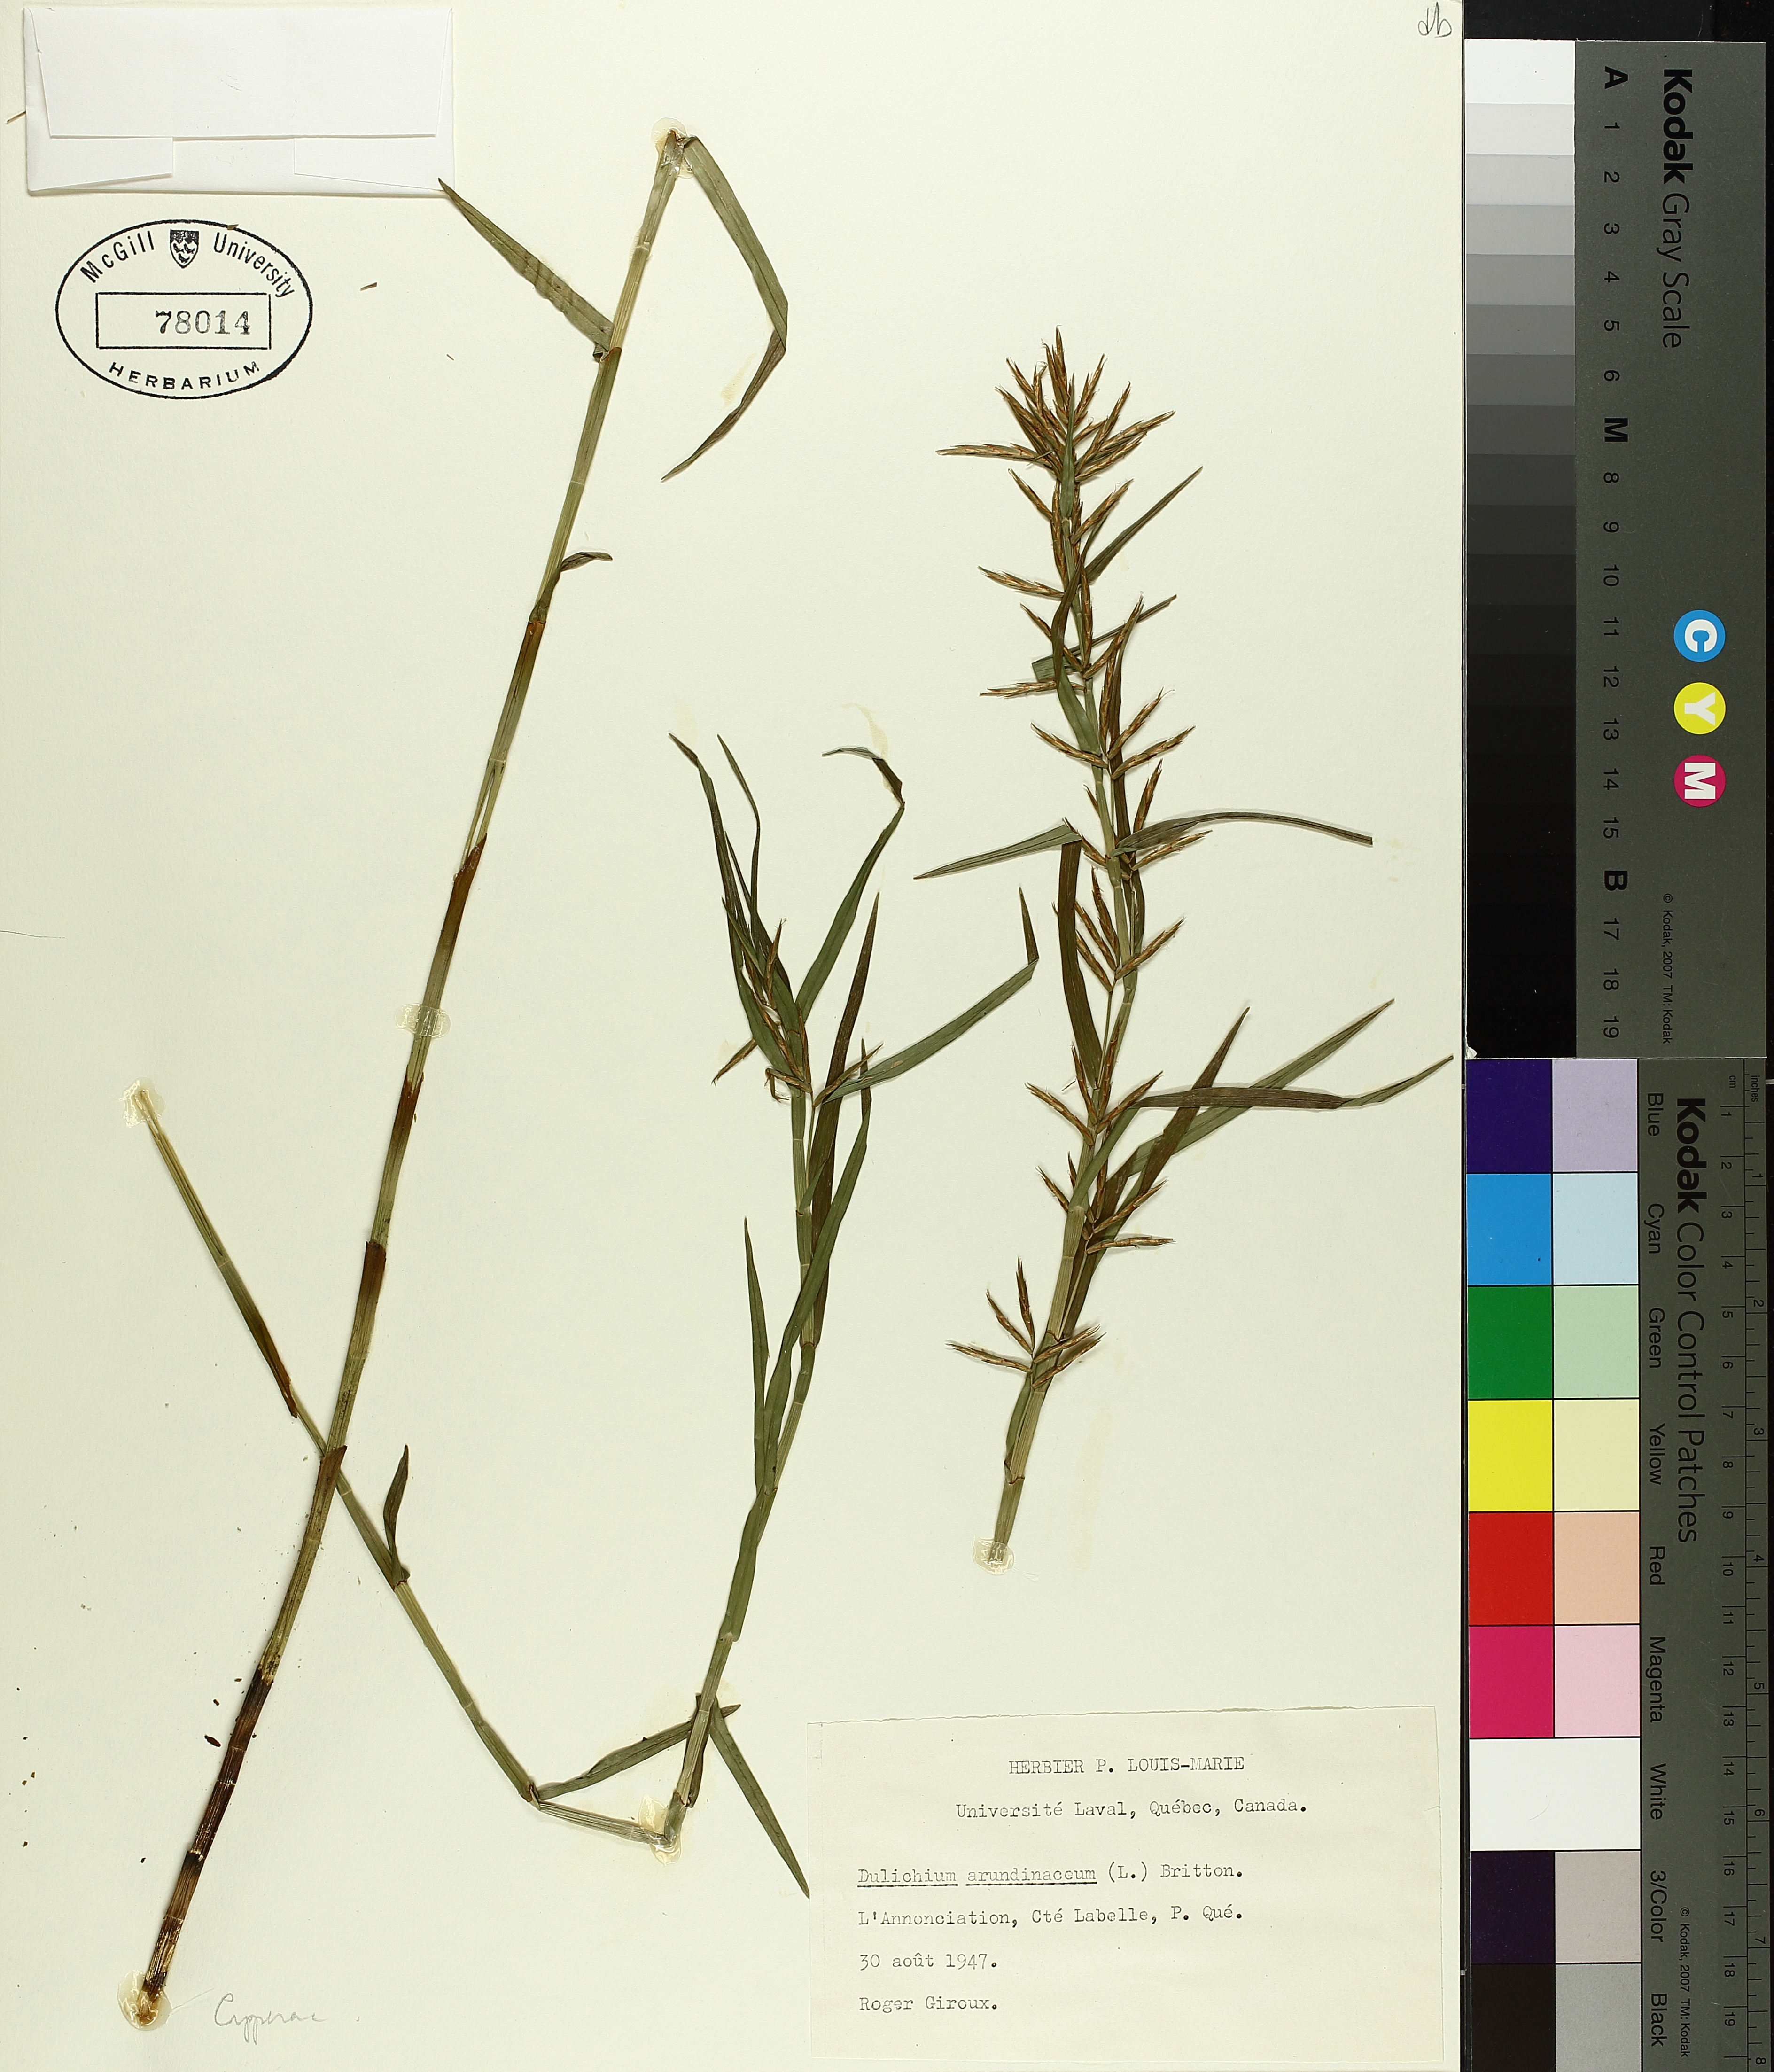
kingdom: Plantae
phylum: Tracheophyta
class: Liliopsida
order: Poales
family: Cyperaceae
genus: Dulichium
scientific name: Dulichium arundinaceum
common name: Three-way sedge
